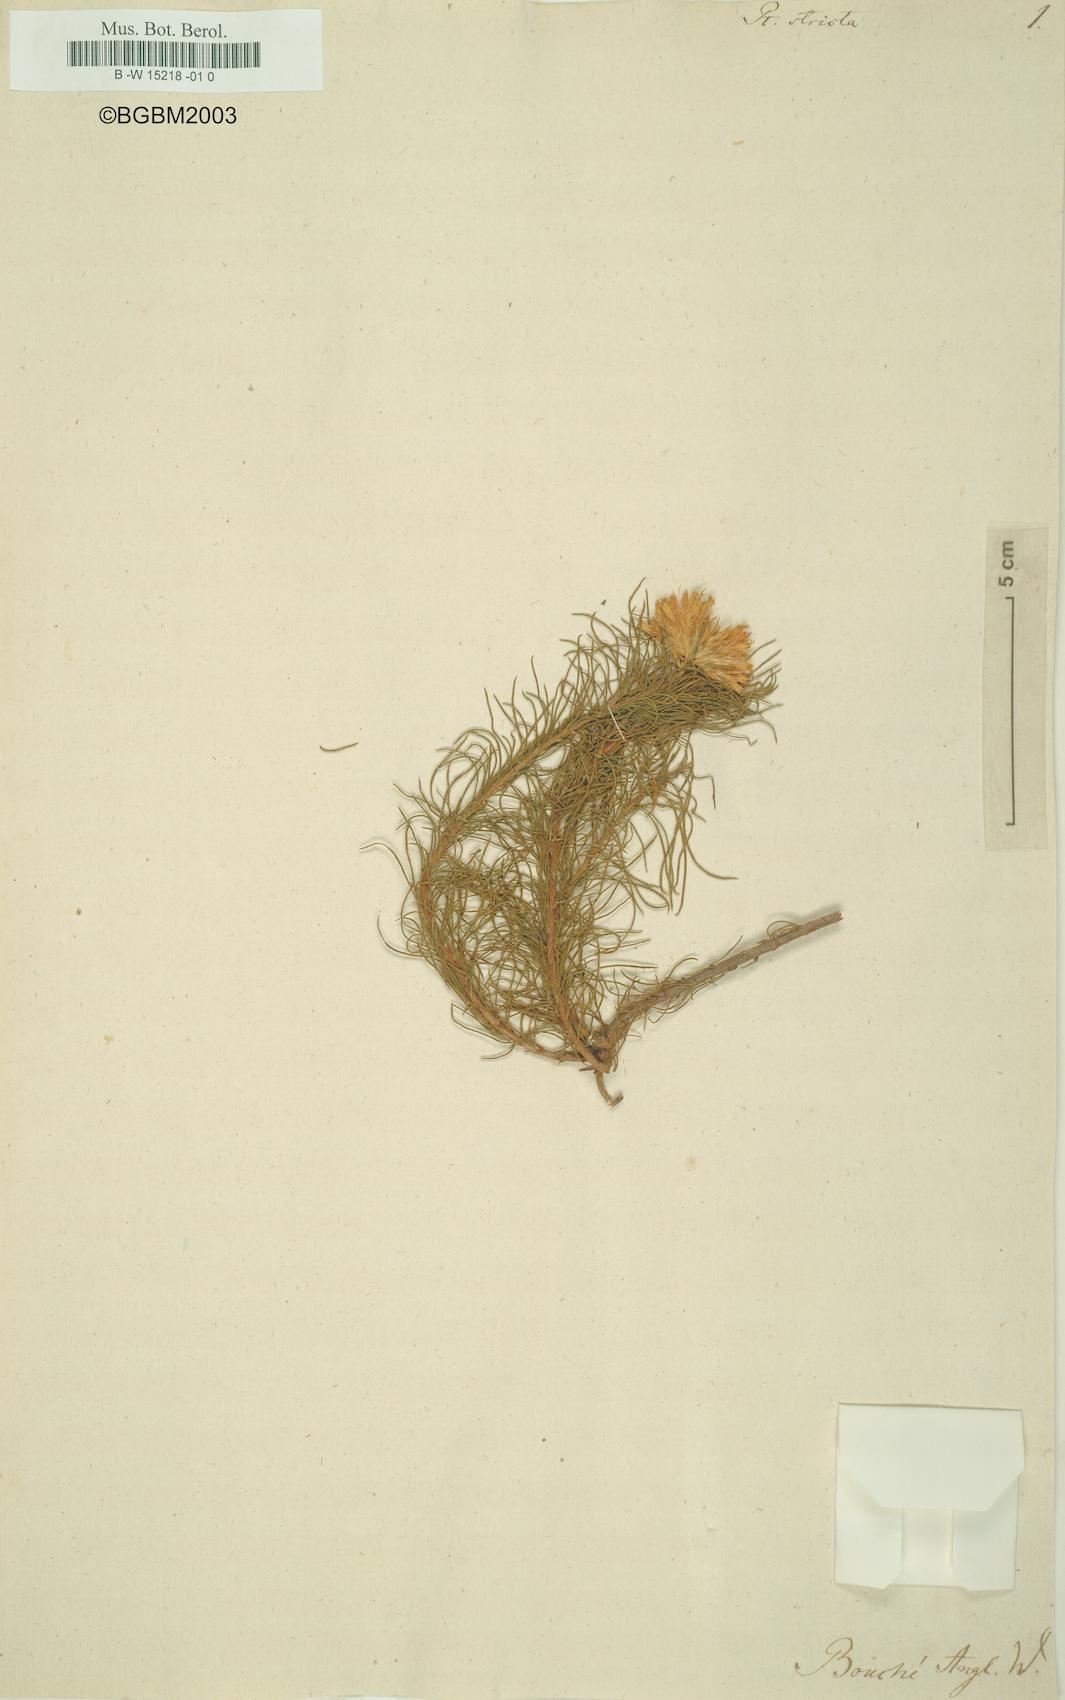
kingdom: Plantae
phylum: Tracheophyta
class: Magnoliopsida
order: Asterales
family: Asteraceae
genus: Pteronia
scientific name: Pteronia stricta
